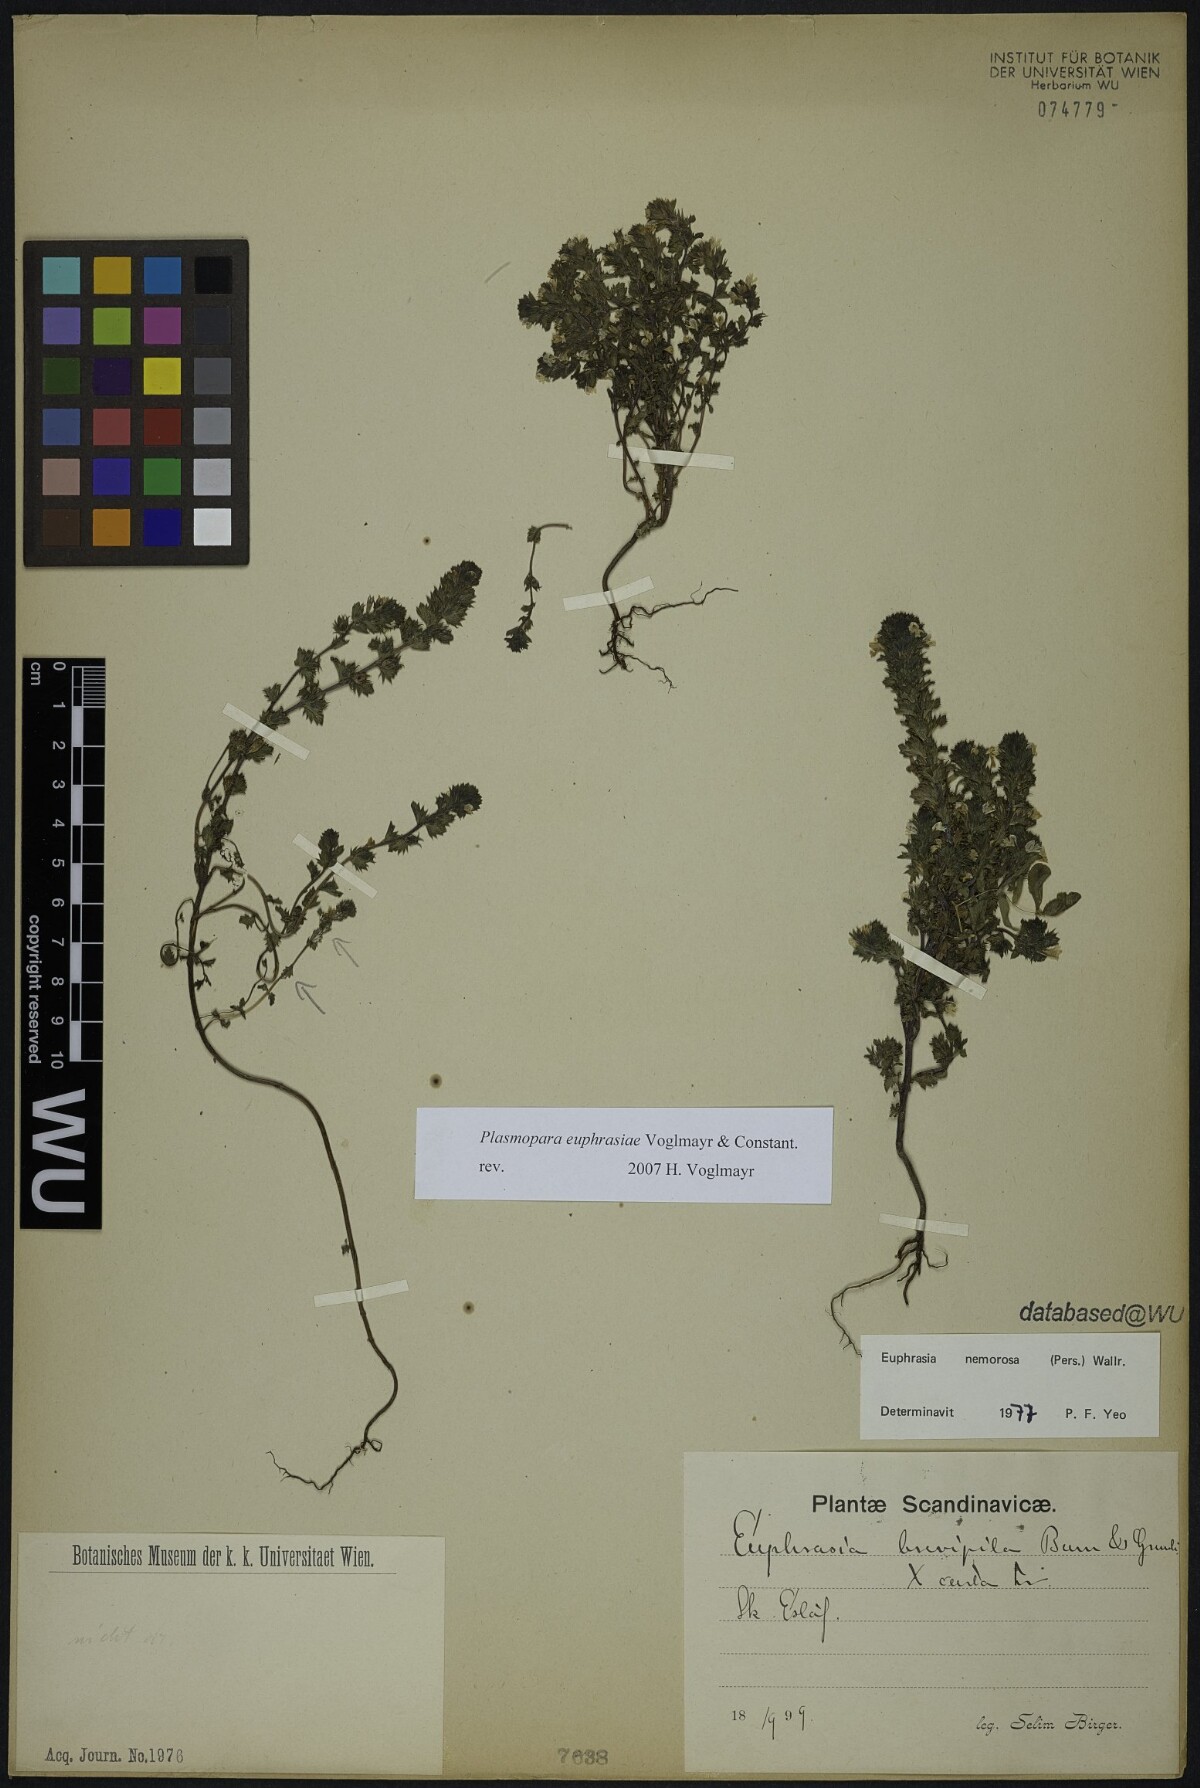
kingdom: Plantae
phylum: Tracheophyta
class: Magnoliopsida
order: Lamiales
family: Orobanchaceae
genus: Euphrasia
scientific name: Euphrasia nemorosa
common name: Common eyebright
